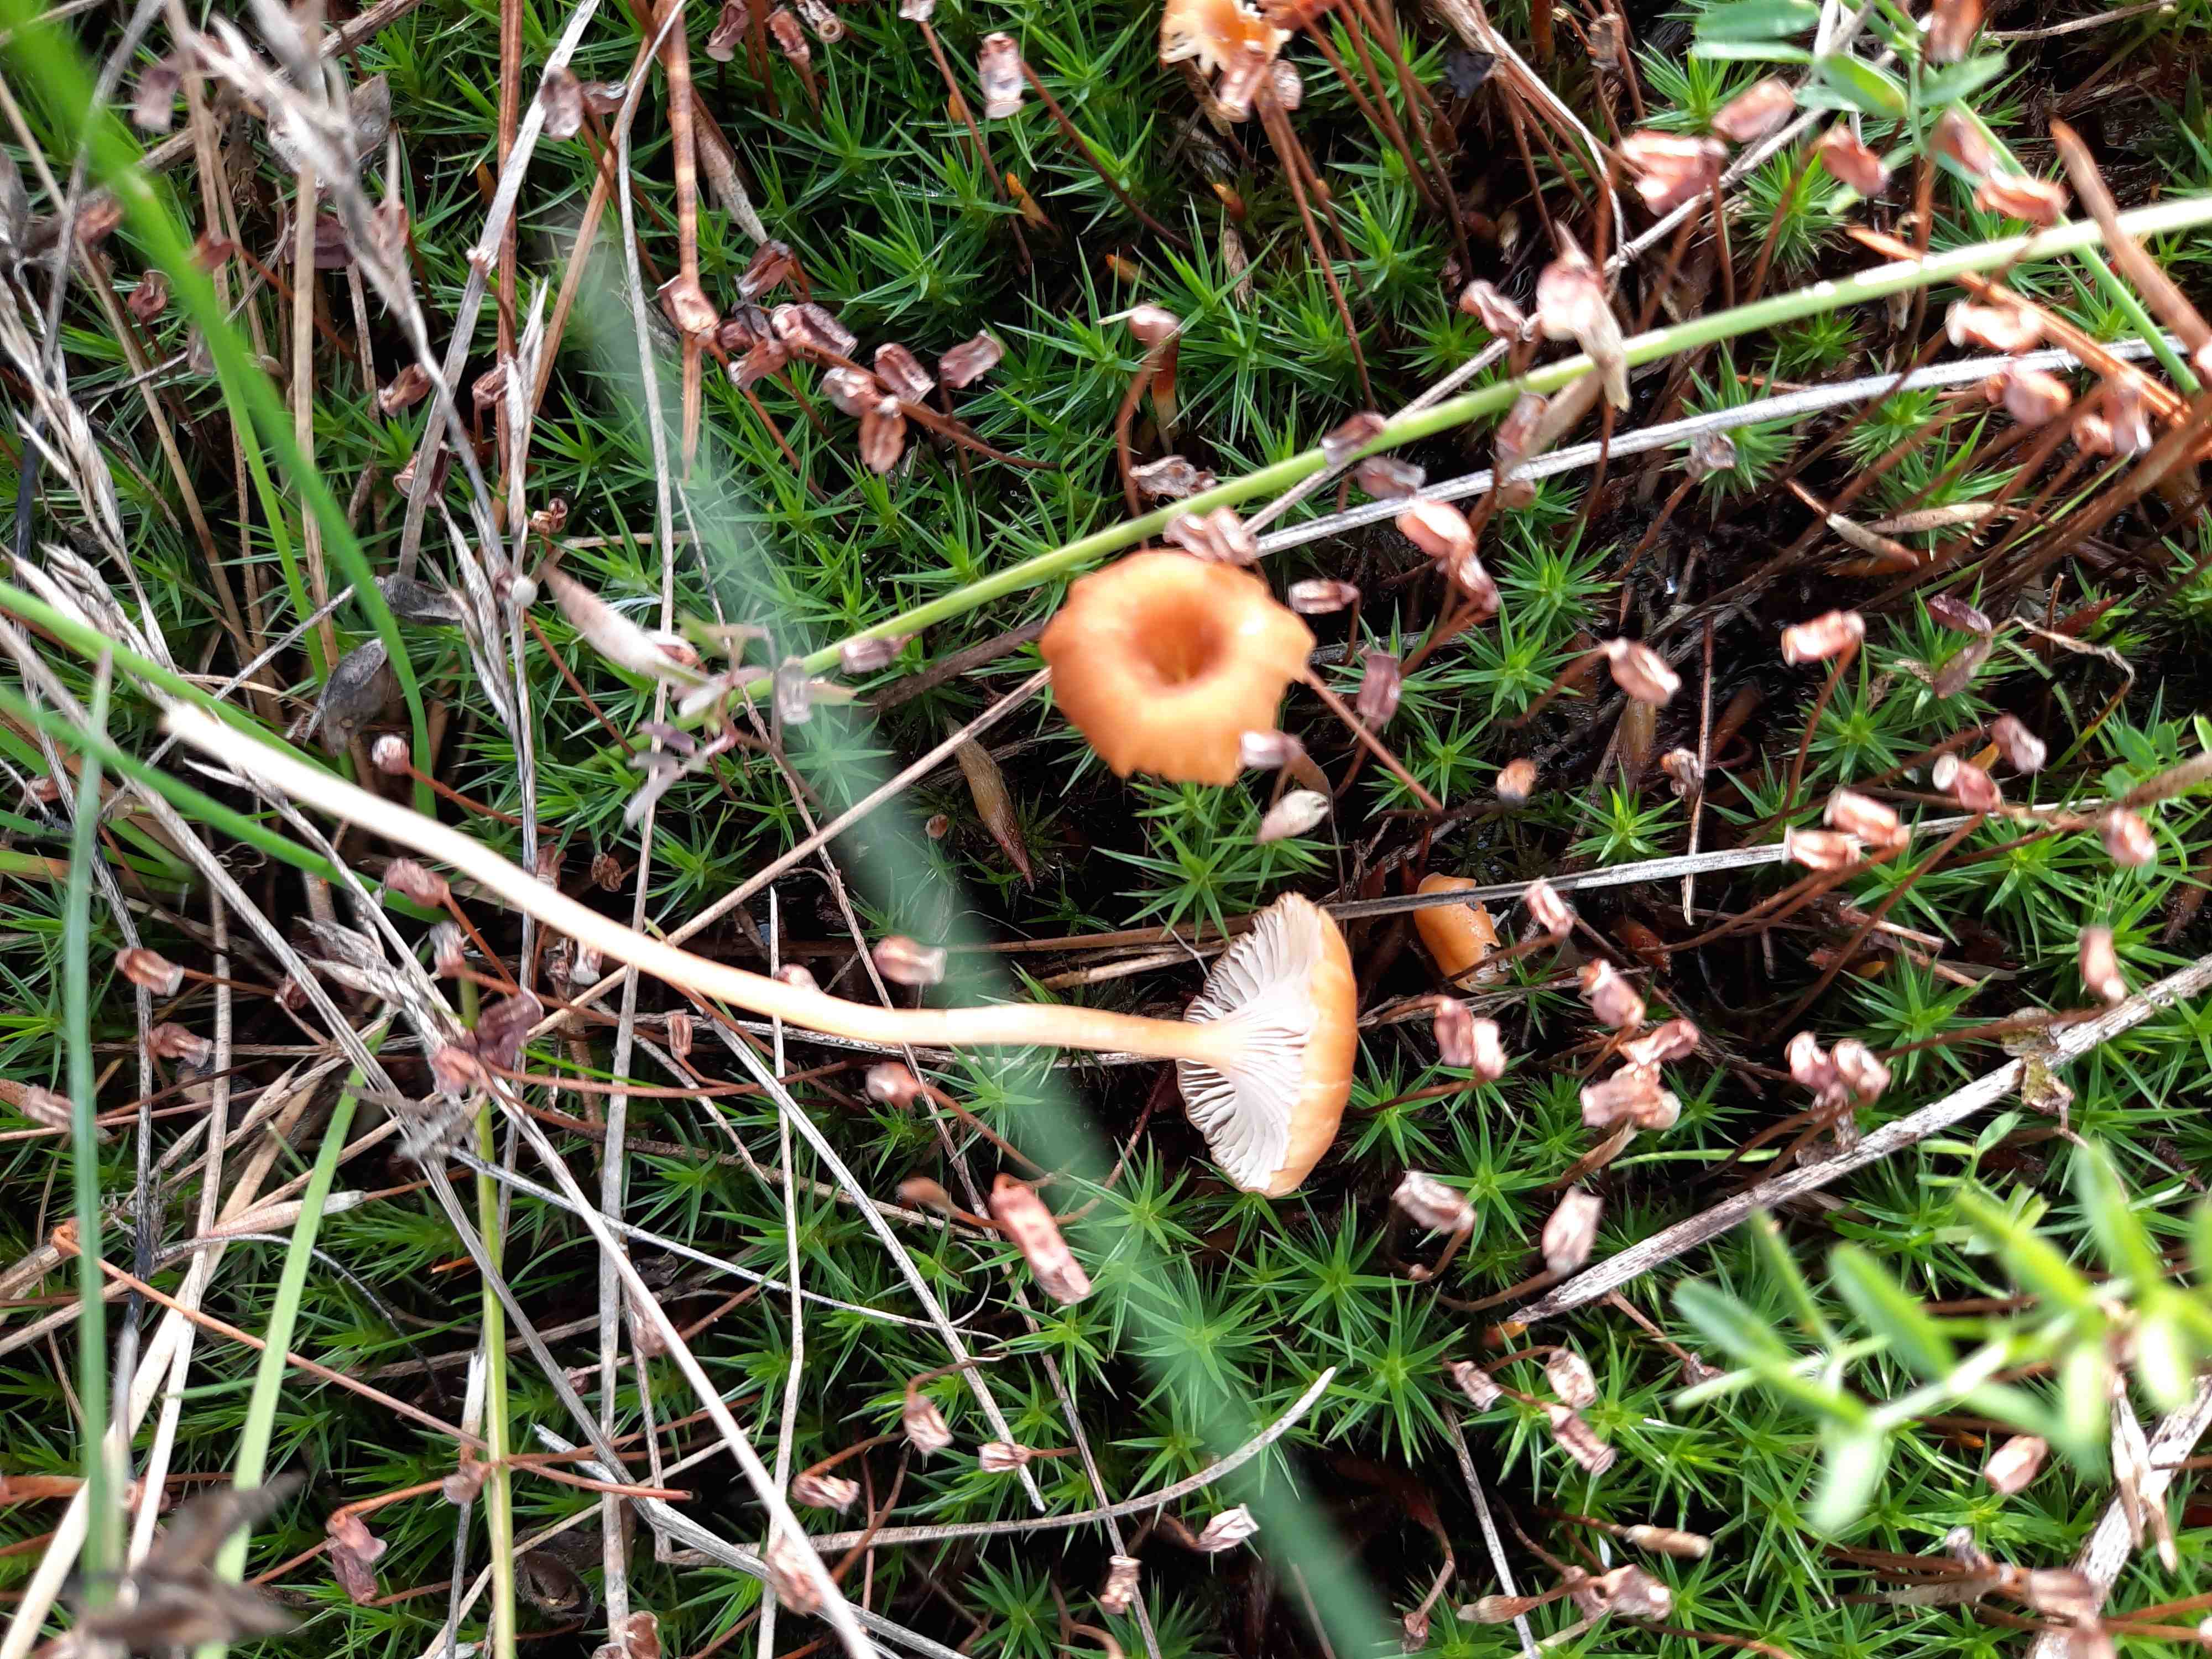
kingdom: Fungi
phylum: Basidiomycota
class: Agaricomycetes
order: Hymenochaetales
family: Rickenellaceae
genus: Rickenella
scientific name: Rickenella fibula
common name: orange mosnavlehat
